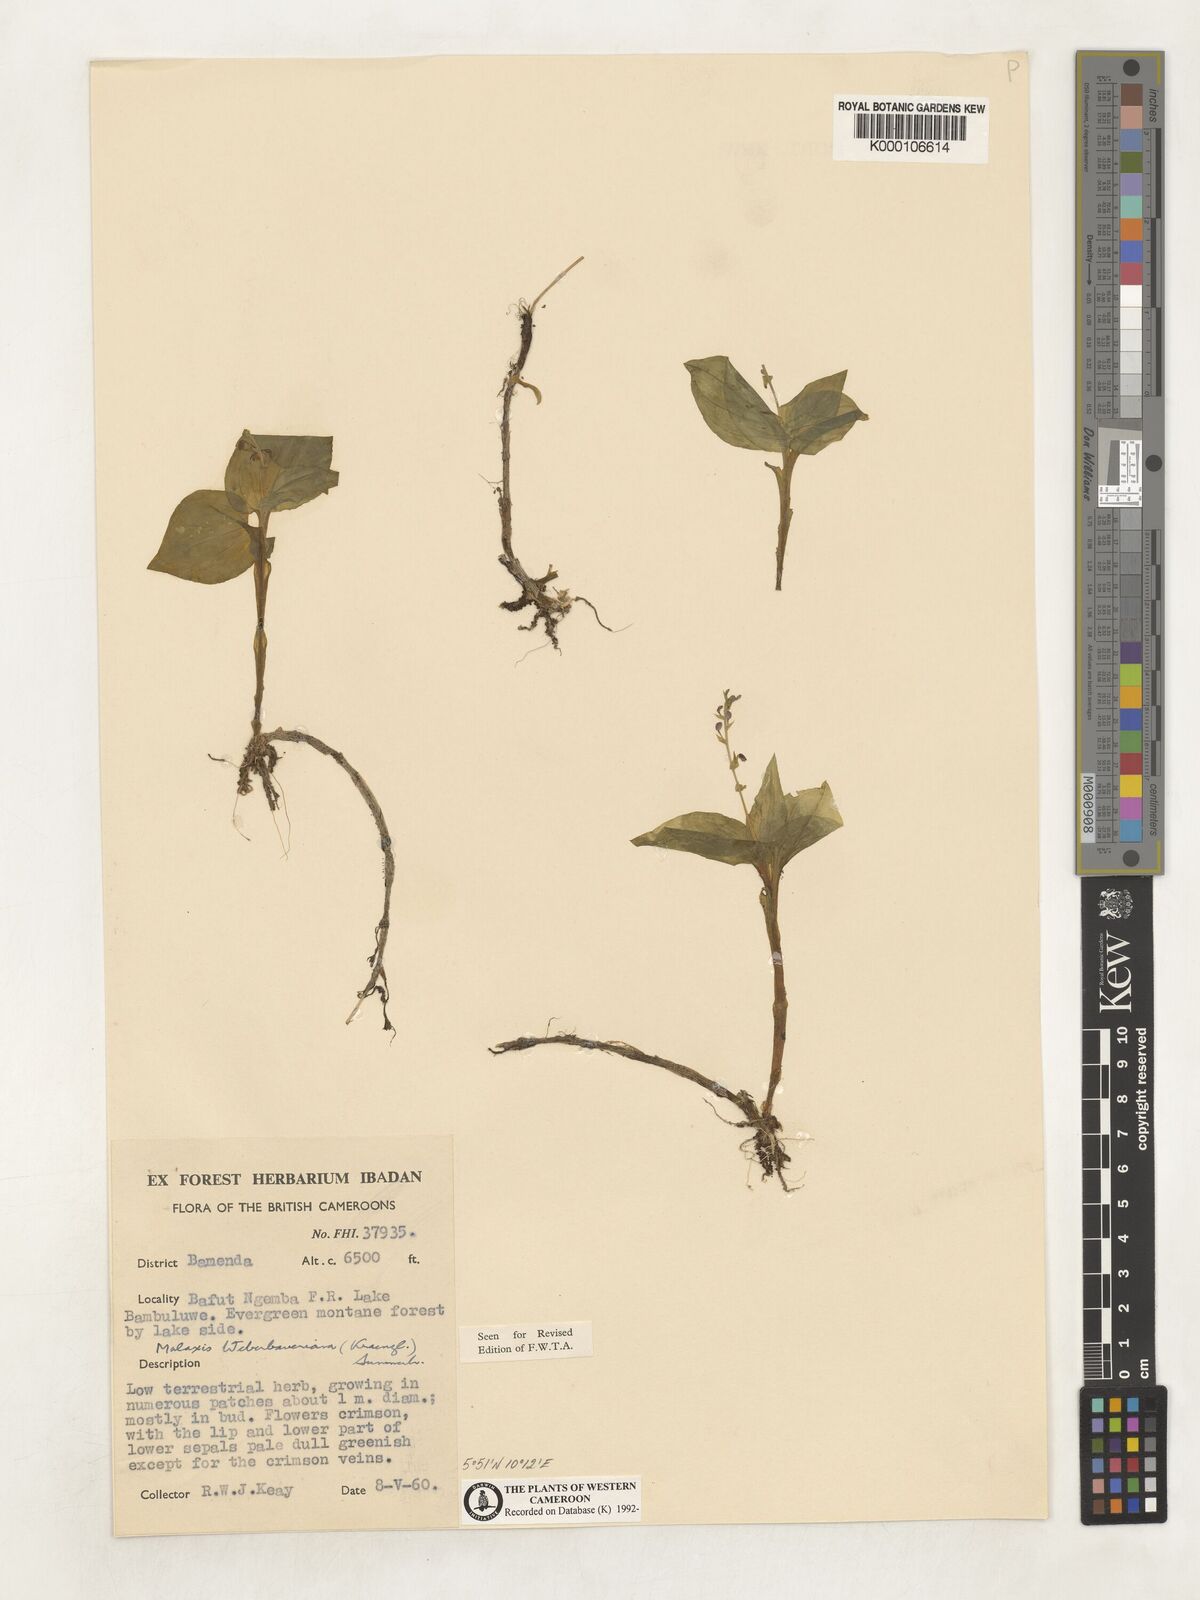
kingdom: Plantae
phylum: Tracheophyta
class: Liliopsida
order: Asparagales
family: Orchidaceae
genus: Malaxis
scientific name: Malaxis weberbaueriana
